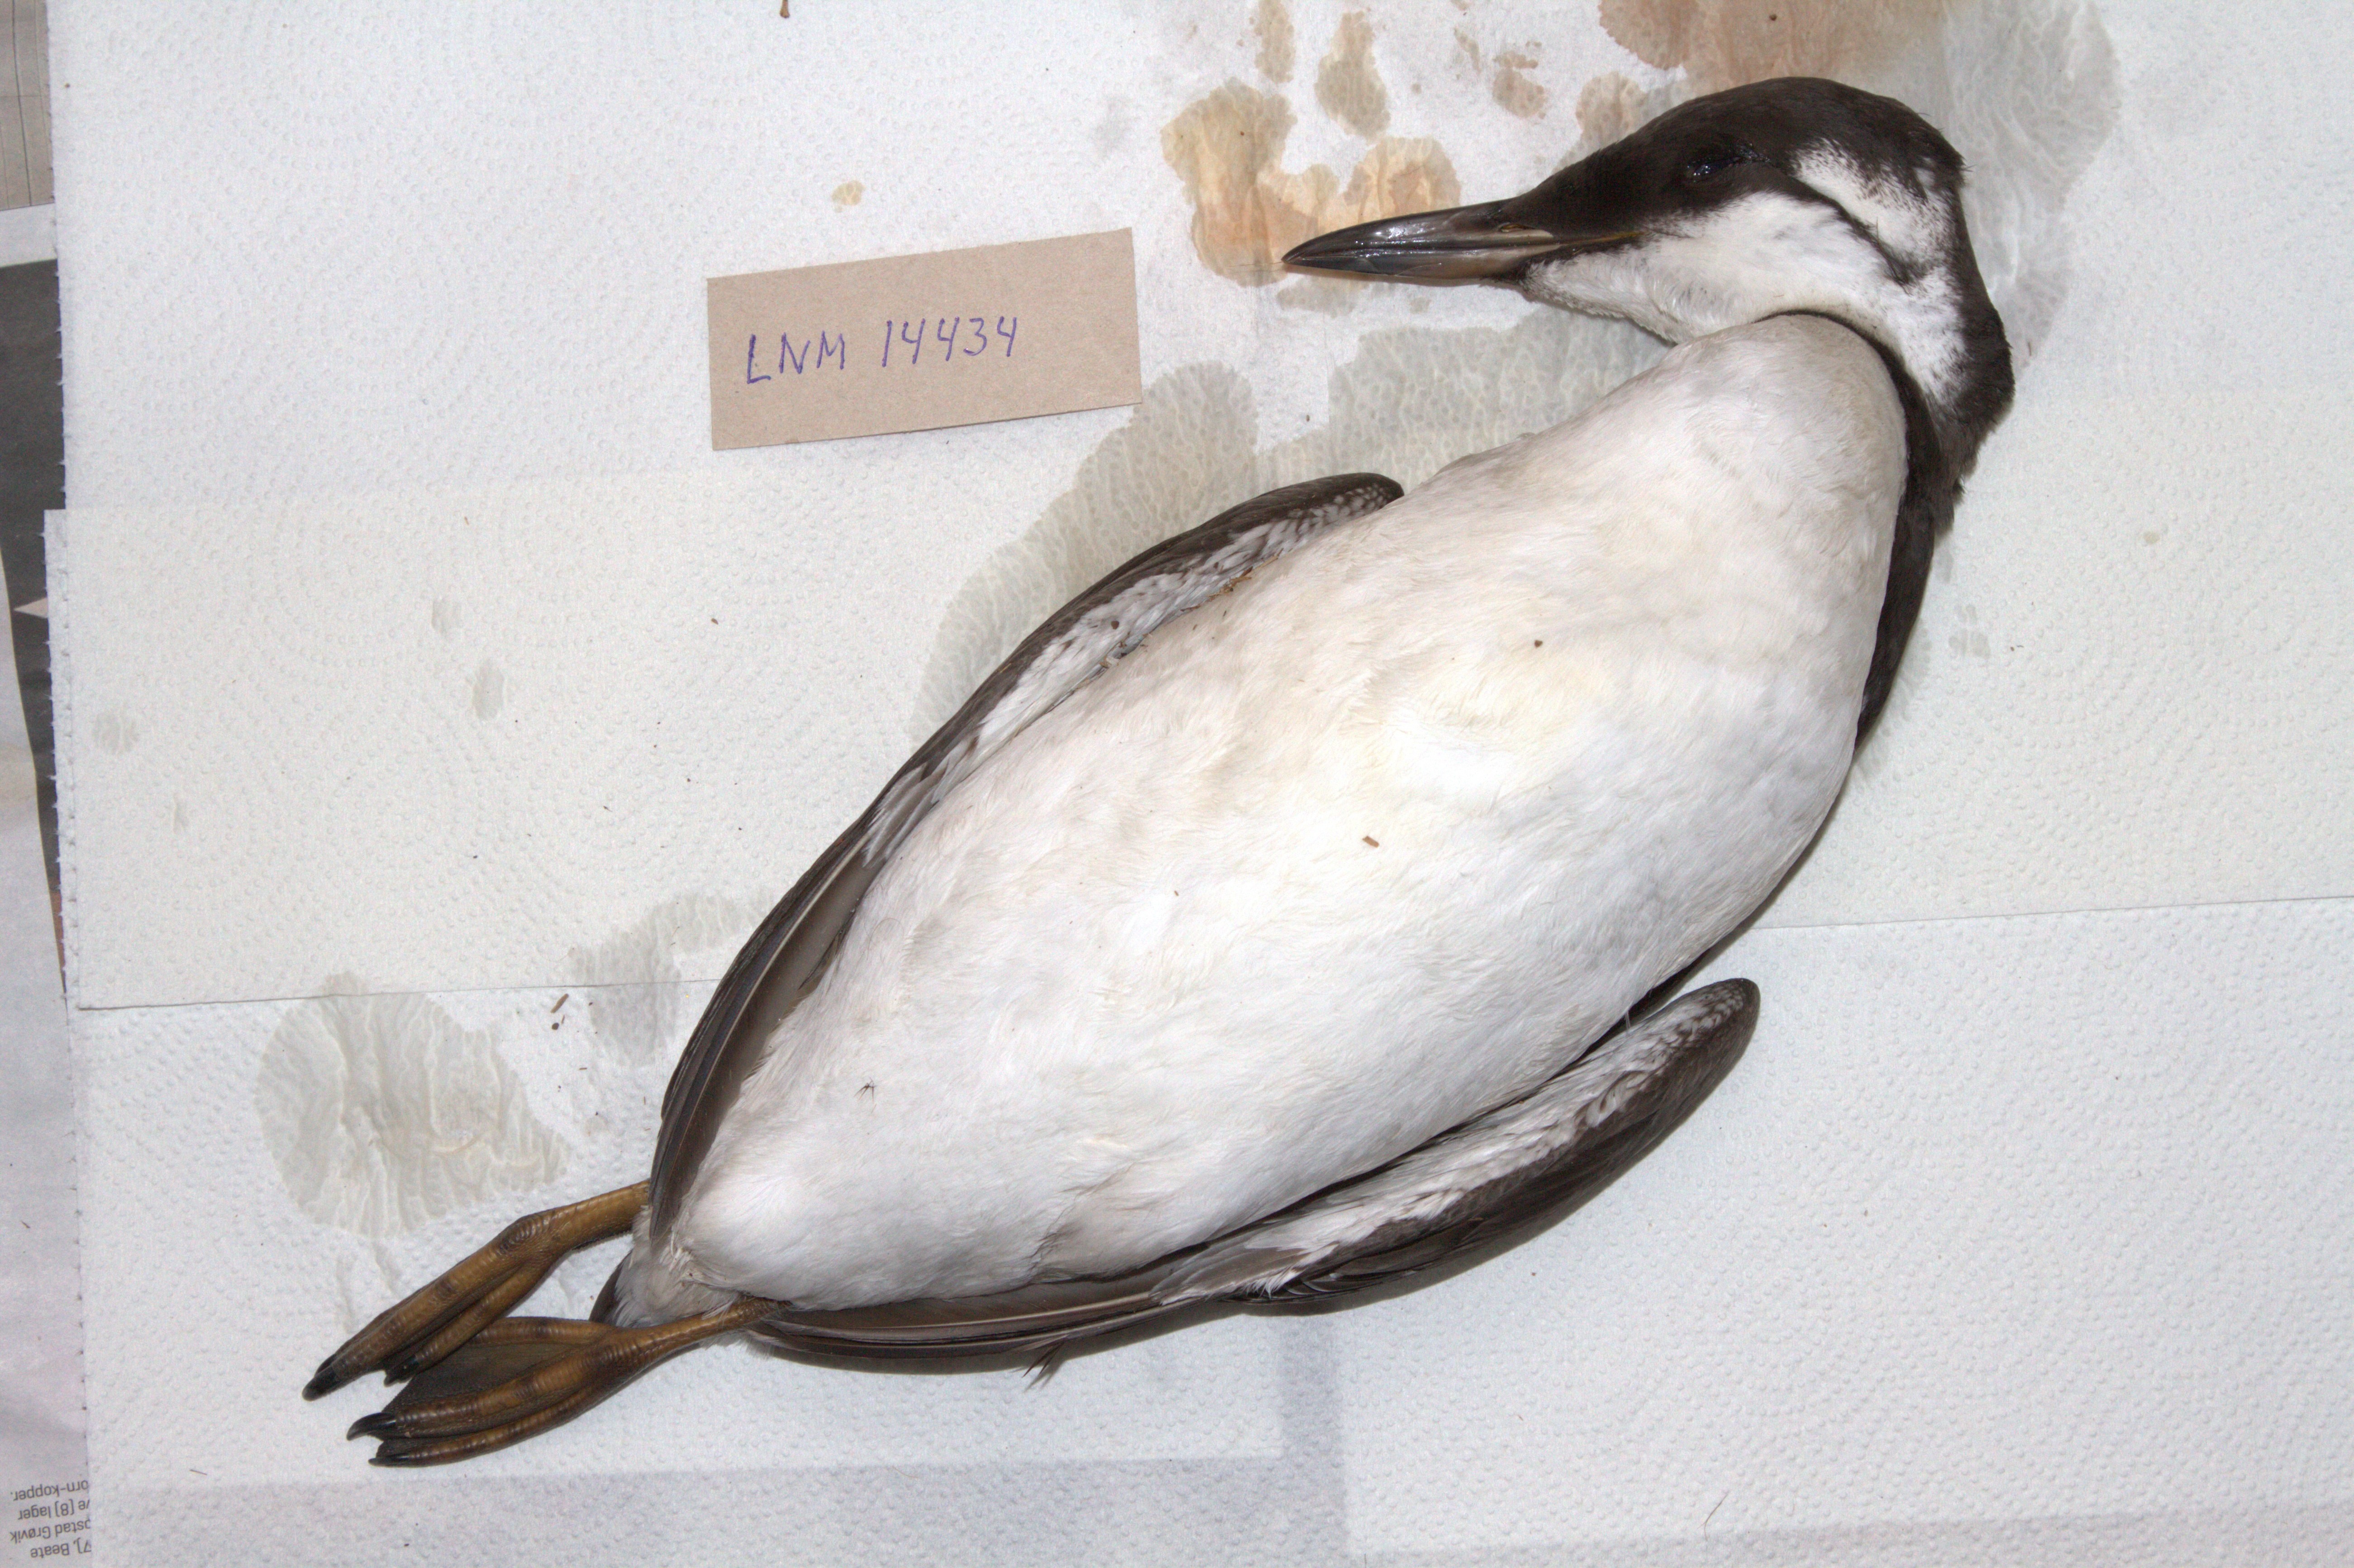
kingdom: Animalia
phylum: Chordata
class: Aves
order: Charadriiformes
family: Alcidae
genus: Uria
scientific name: Uria aalge
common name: Common murre
